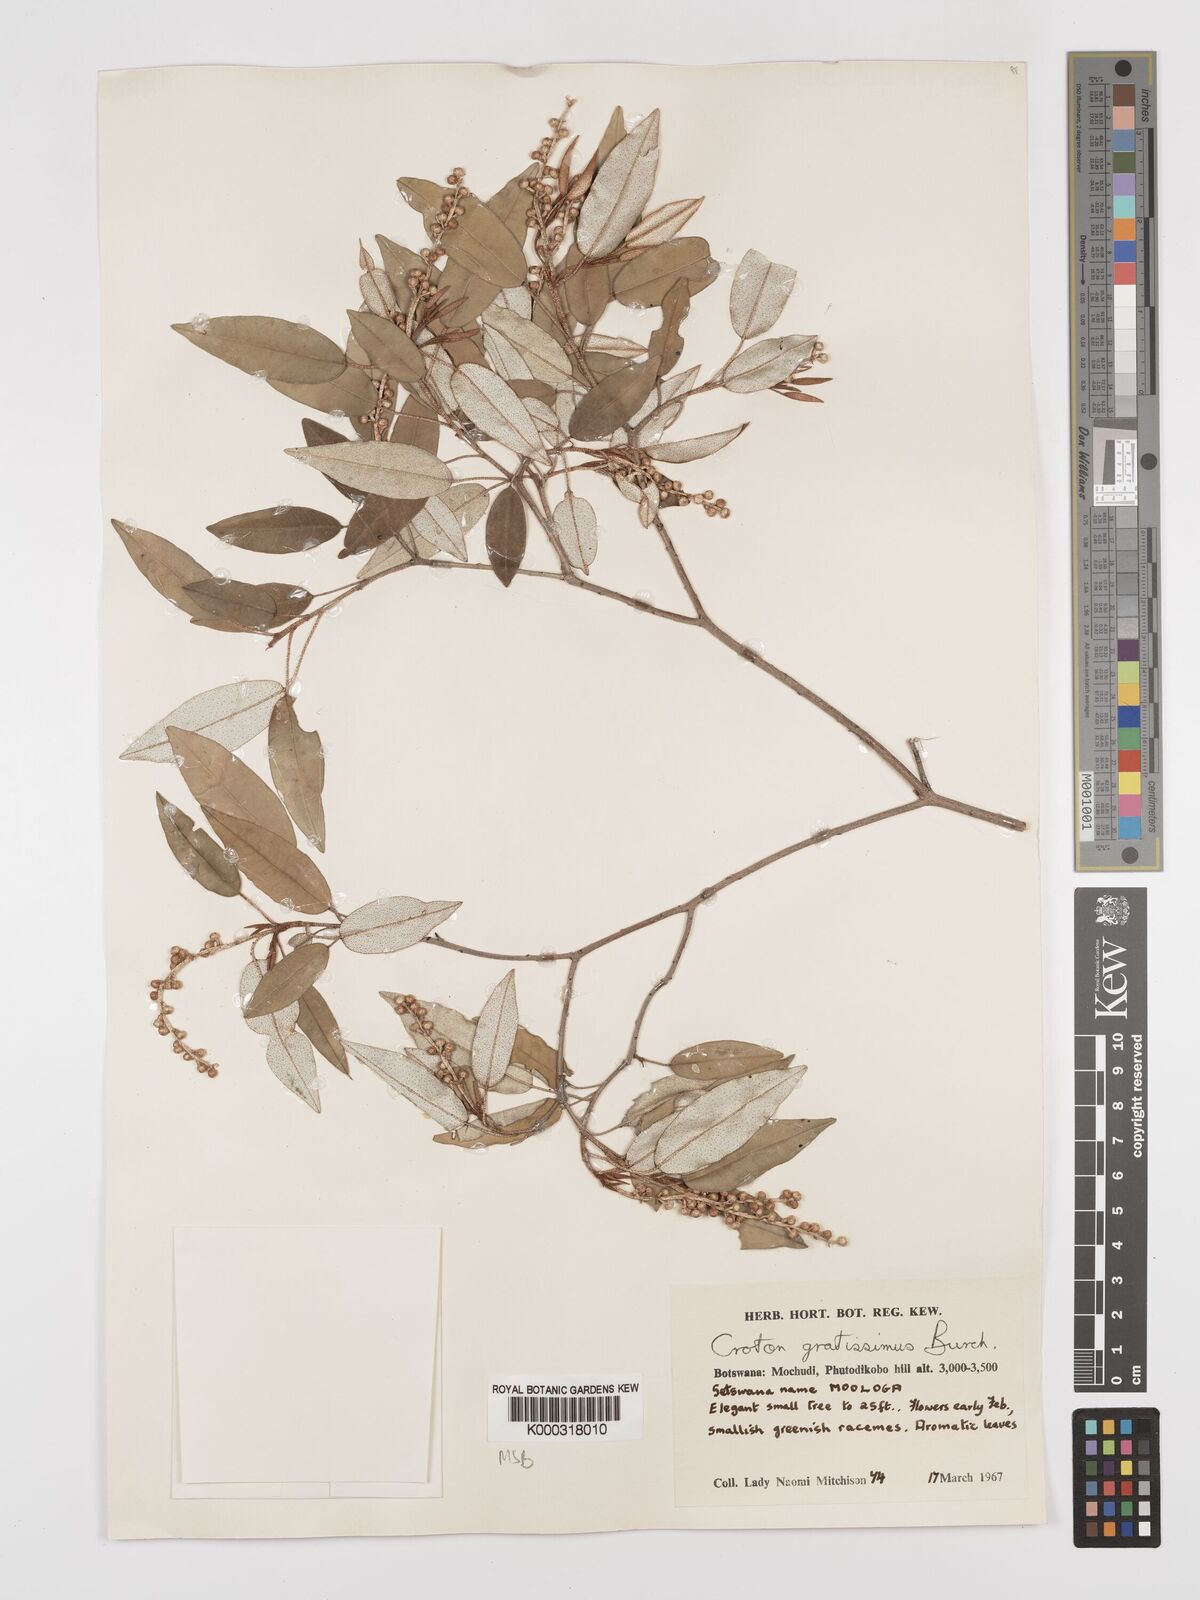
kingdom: Plantae
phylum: Tracheophyta
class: Magnoliopsida
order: Malpighiales
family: Euphorbiaceae
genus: Croton
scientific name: Croton gratissimus
